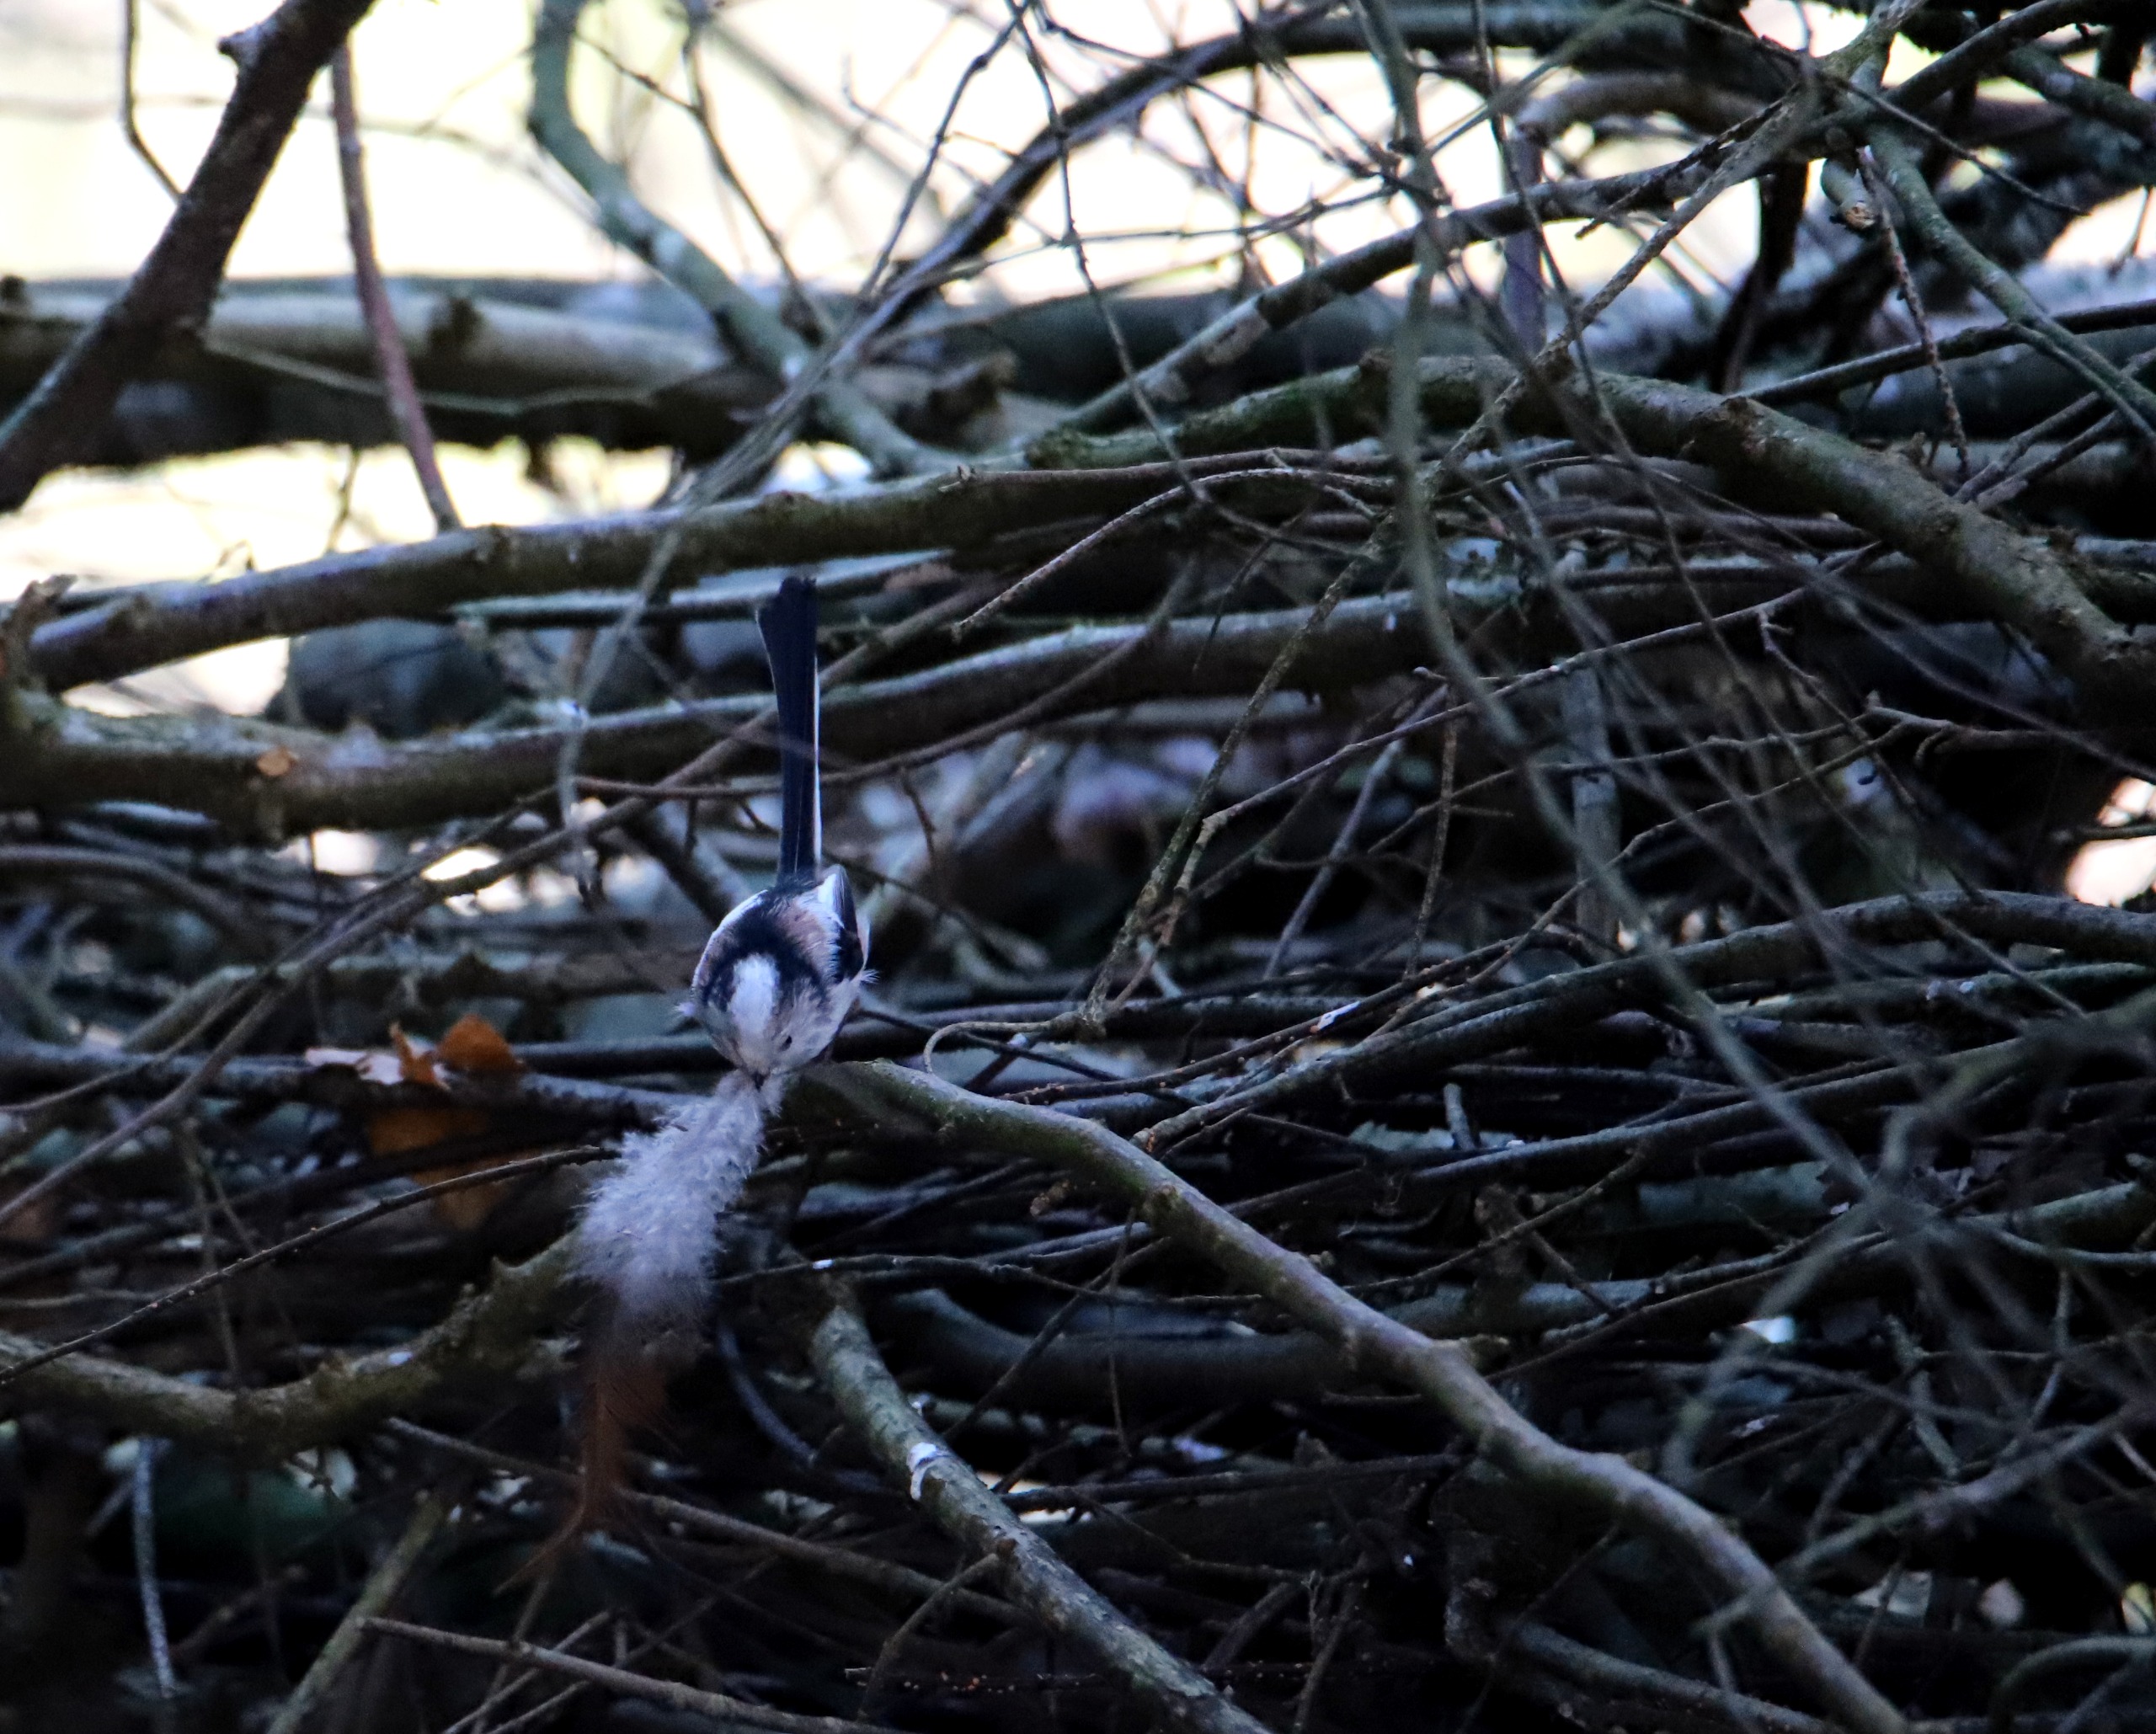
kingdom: Animalia
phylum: Chordata
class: Aves
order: Passeriformes
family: Aegithalidae
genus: Aegithalos
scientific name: Aegithalos caudatus
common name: Halemejse
